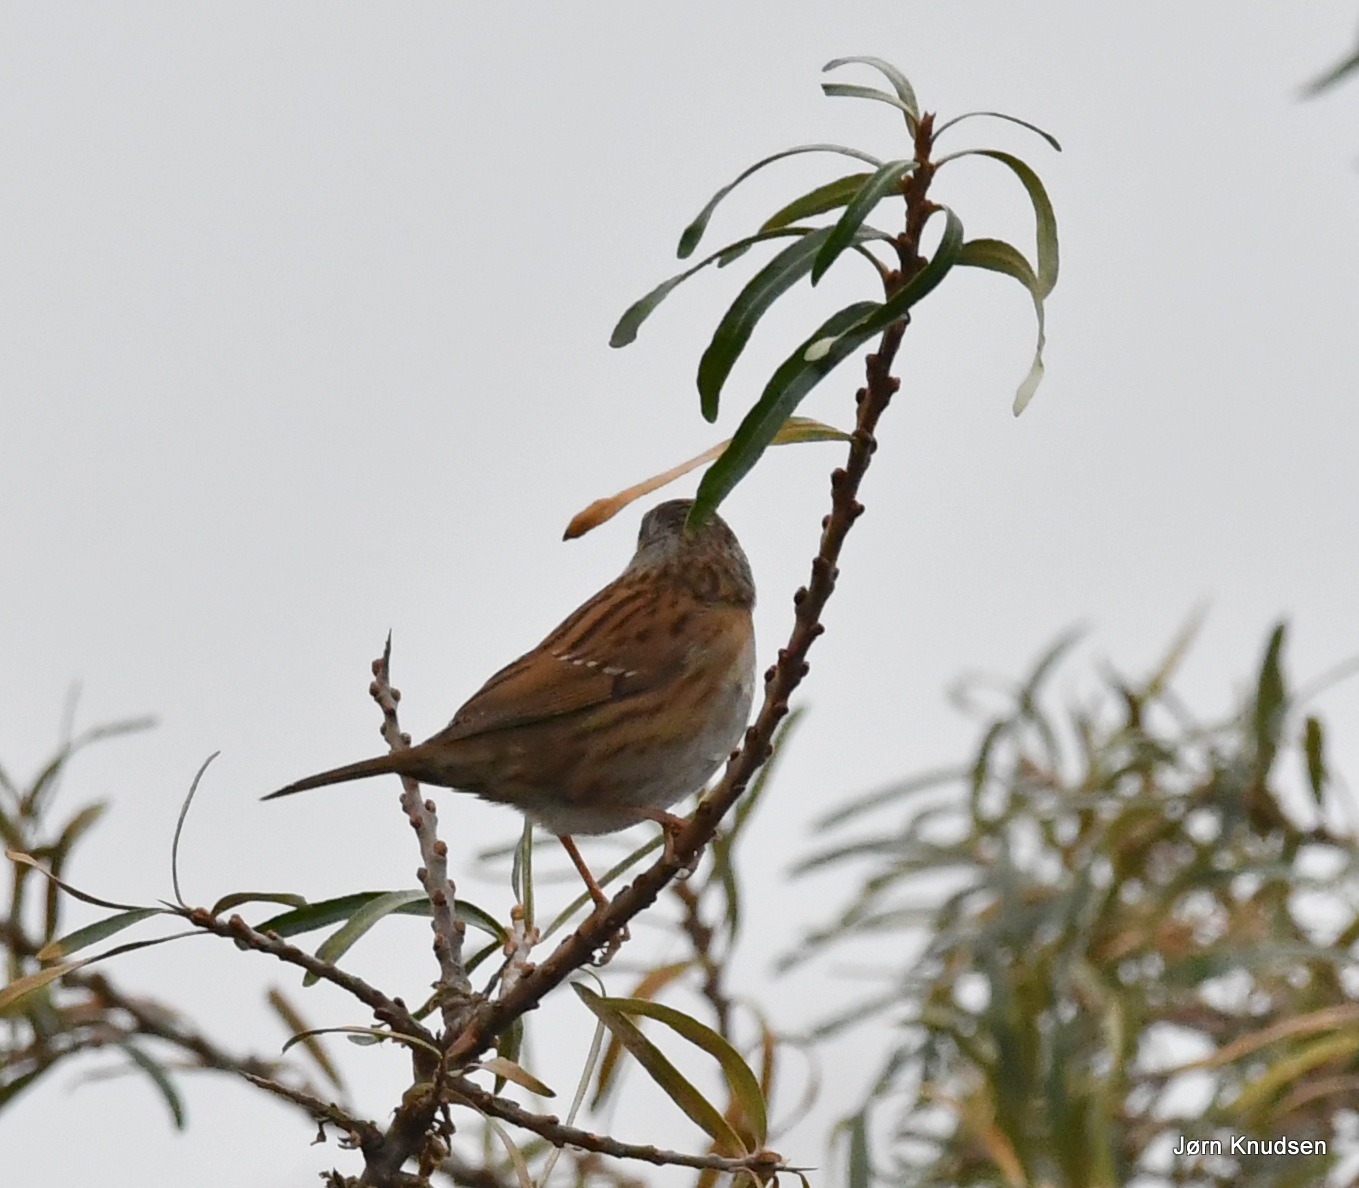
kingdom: Animalia
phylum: Chordata
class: Aves
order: Passeriformes
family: Prunellidae
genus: Prunella
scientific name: Prunella modularis
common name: Jernspurv
